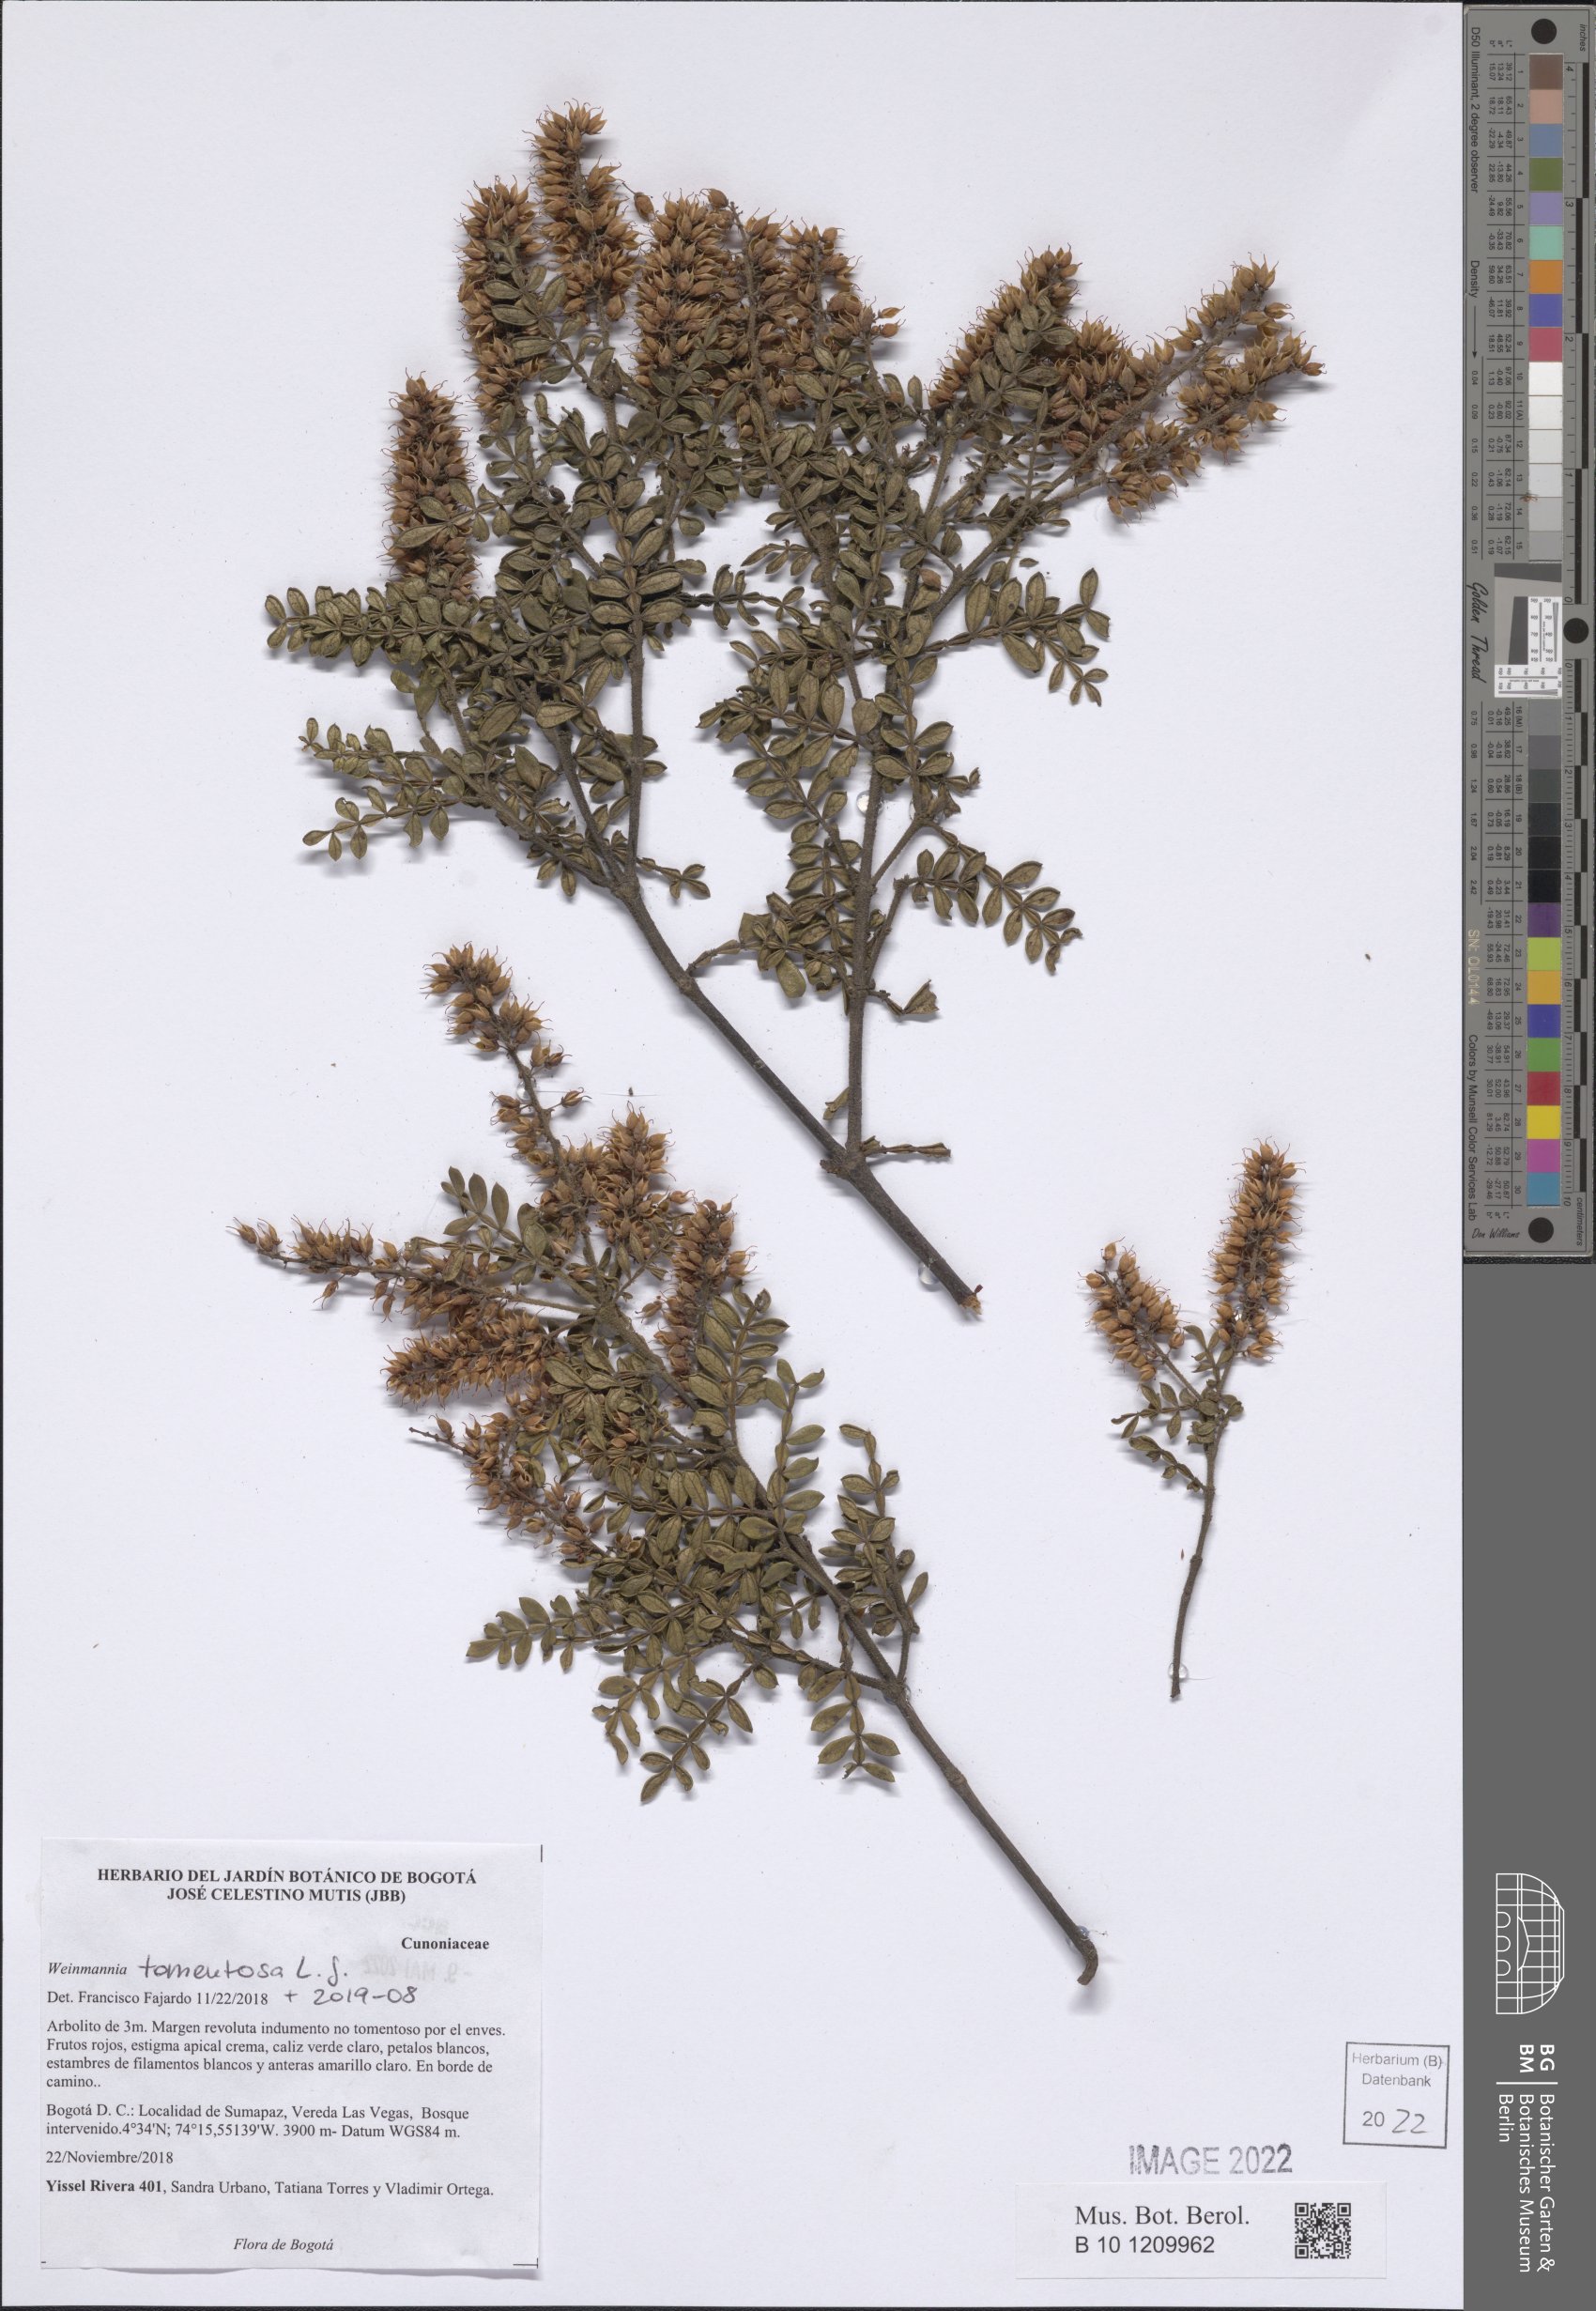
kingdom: Plantae
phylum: Tracheophyta
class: Magnoliopsida
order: Oxalidales
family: Cunoniaceae
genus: Weinmannia
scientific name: Weinmannia tomentosa
